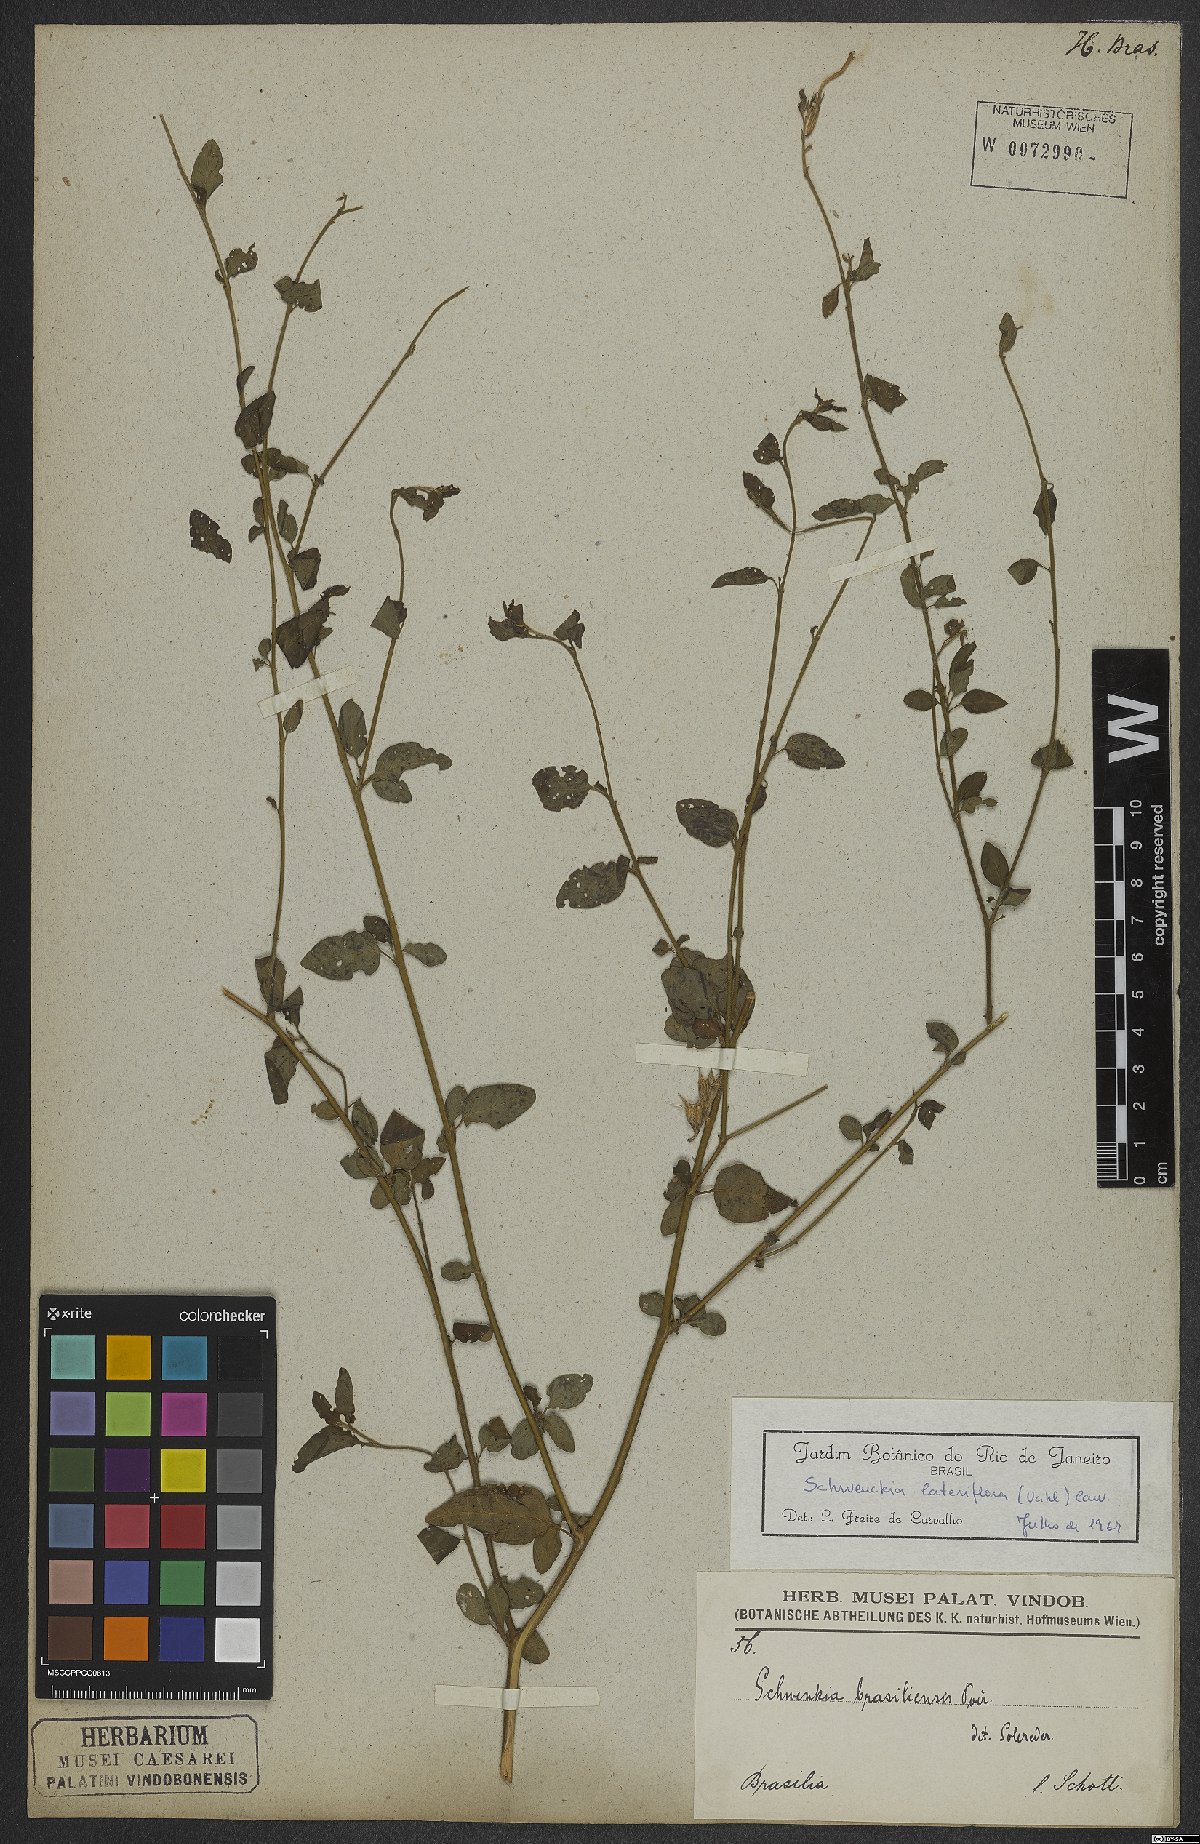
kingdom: Plantae
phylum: Tracheophyta
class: Magnoliopsida
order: Solanales
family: Solanaceae
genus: Schwenckia
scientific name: Schwenckia lateriflora
